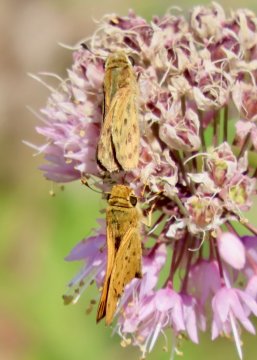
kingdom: Animalia
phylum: Arthropoda
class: Insecta
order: Lepidoptera
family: Hesperiidae
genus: Hylephila
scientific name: Hylephila phyleus
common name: Fiery Skipper
